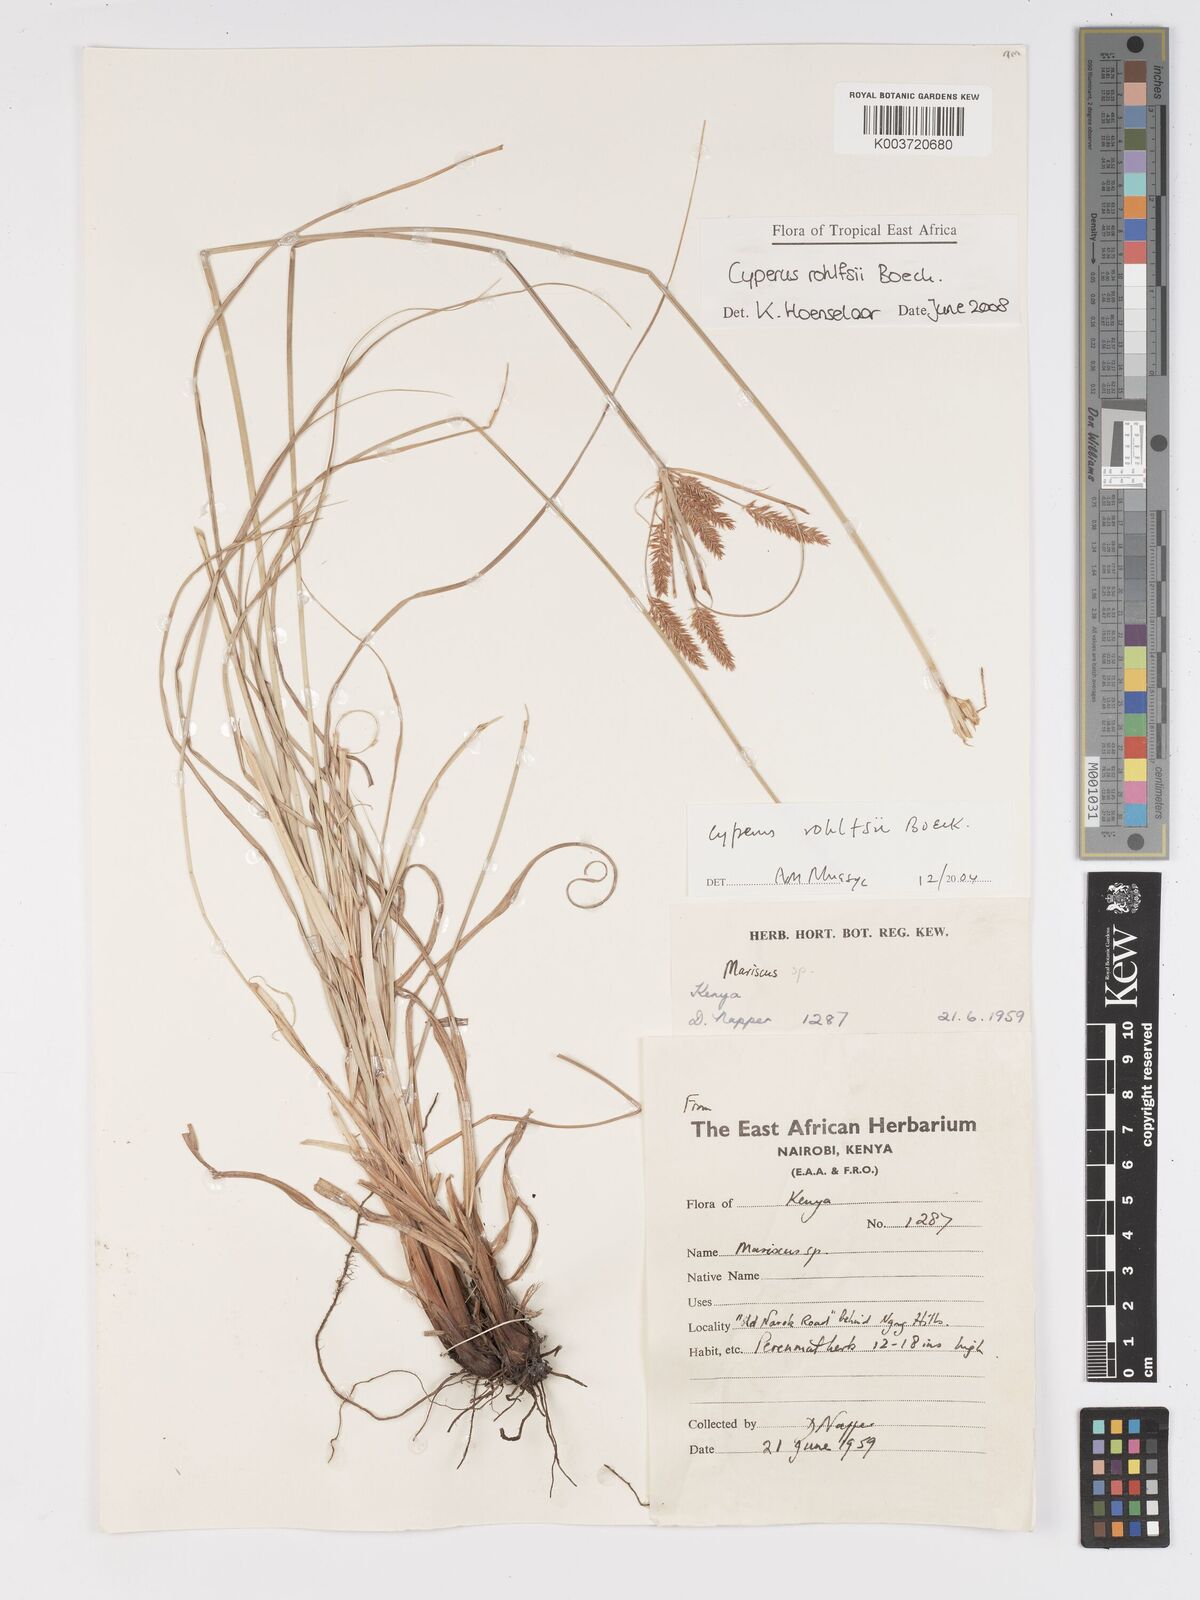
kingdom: Plantae
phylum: Tracheophyta
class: Liliopsida
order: Poales
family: Cyperaceae
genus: Cyperus
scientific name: Cyperus rohlfsii
